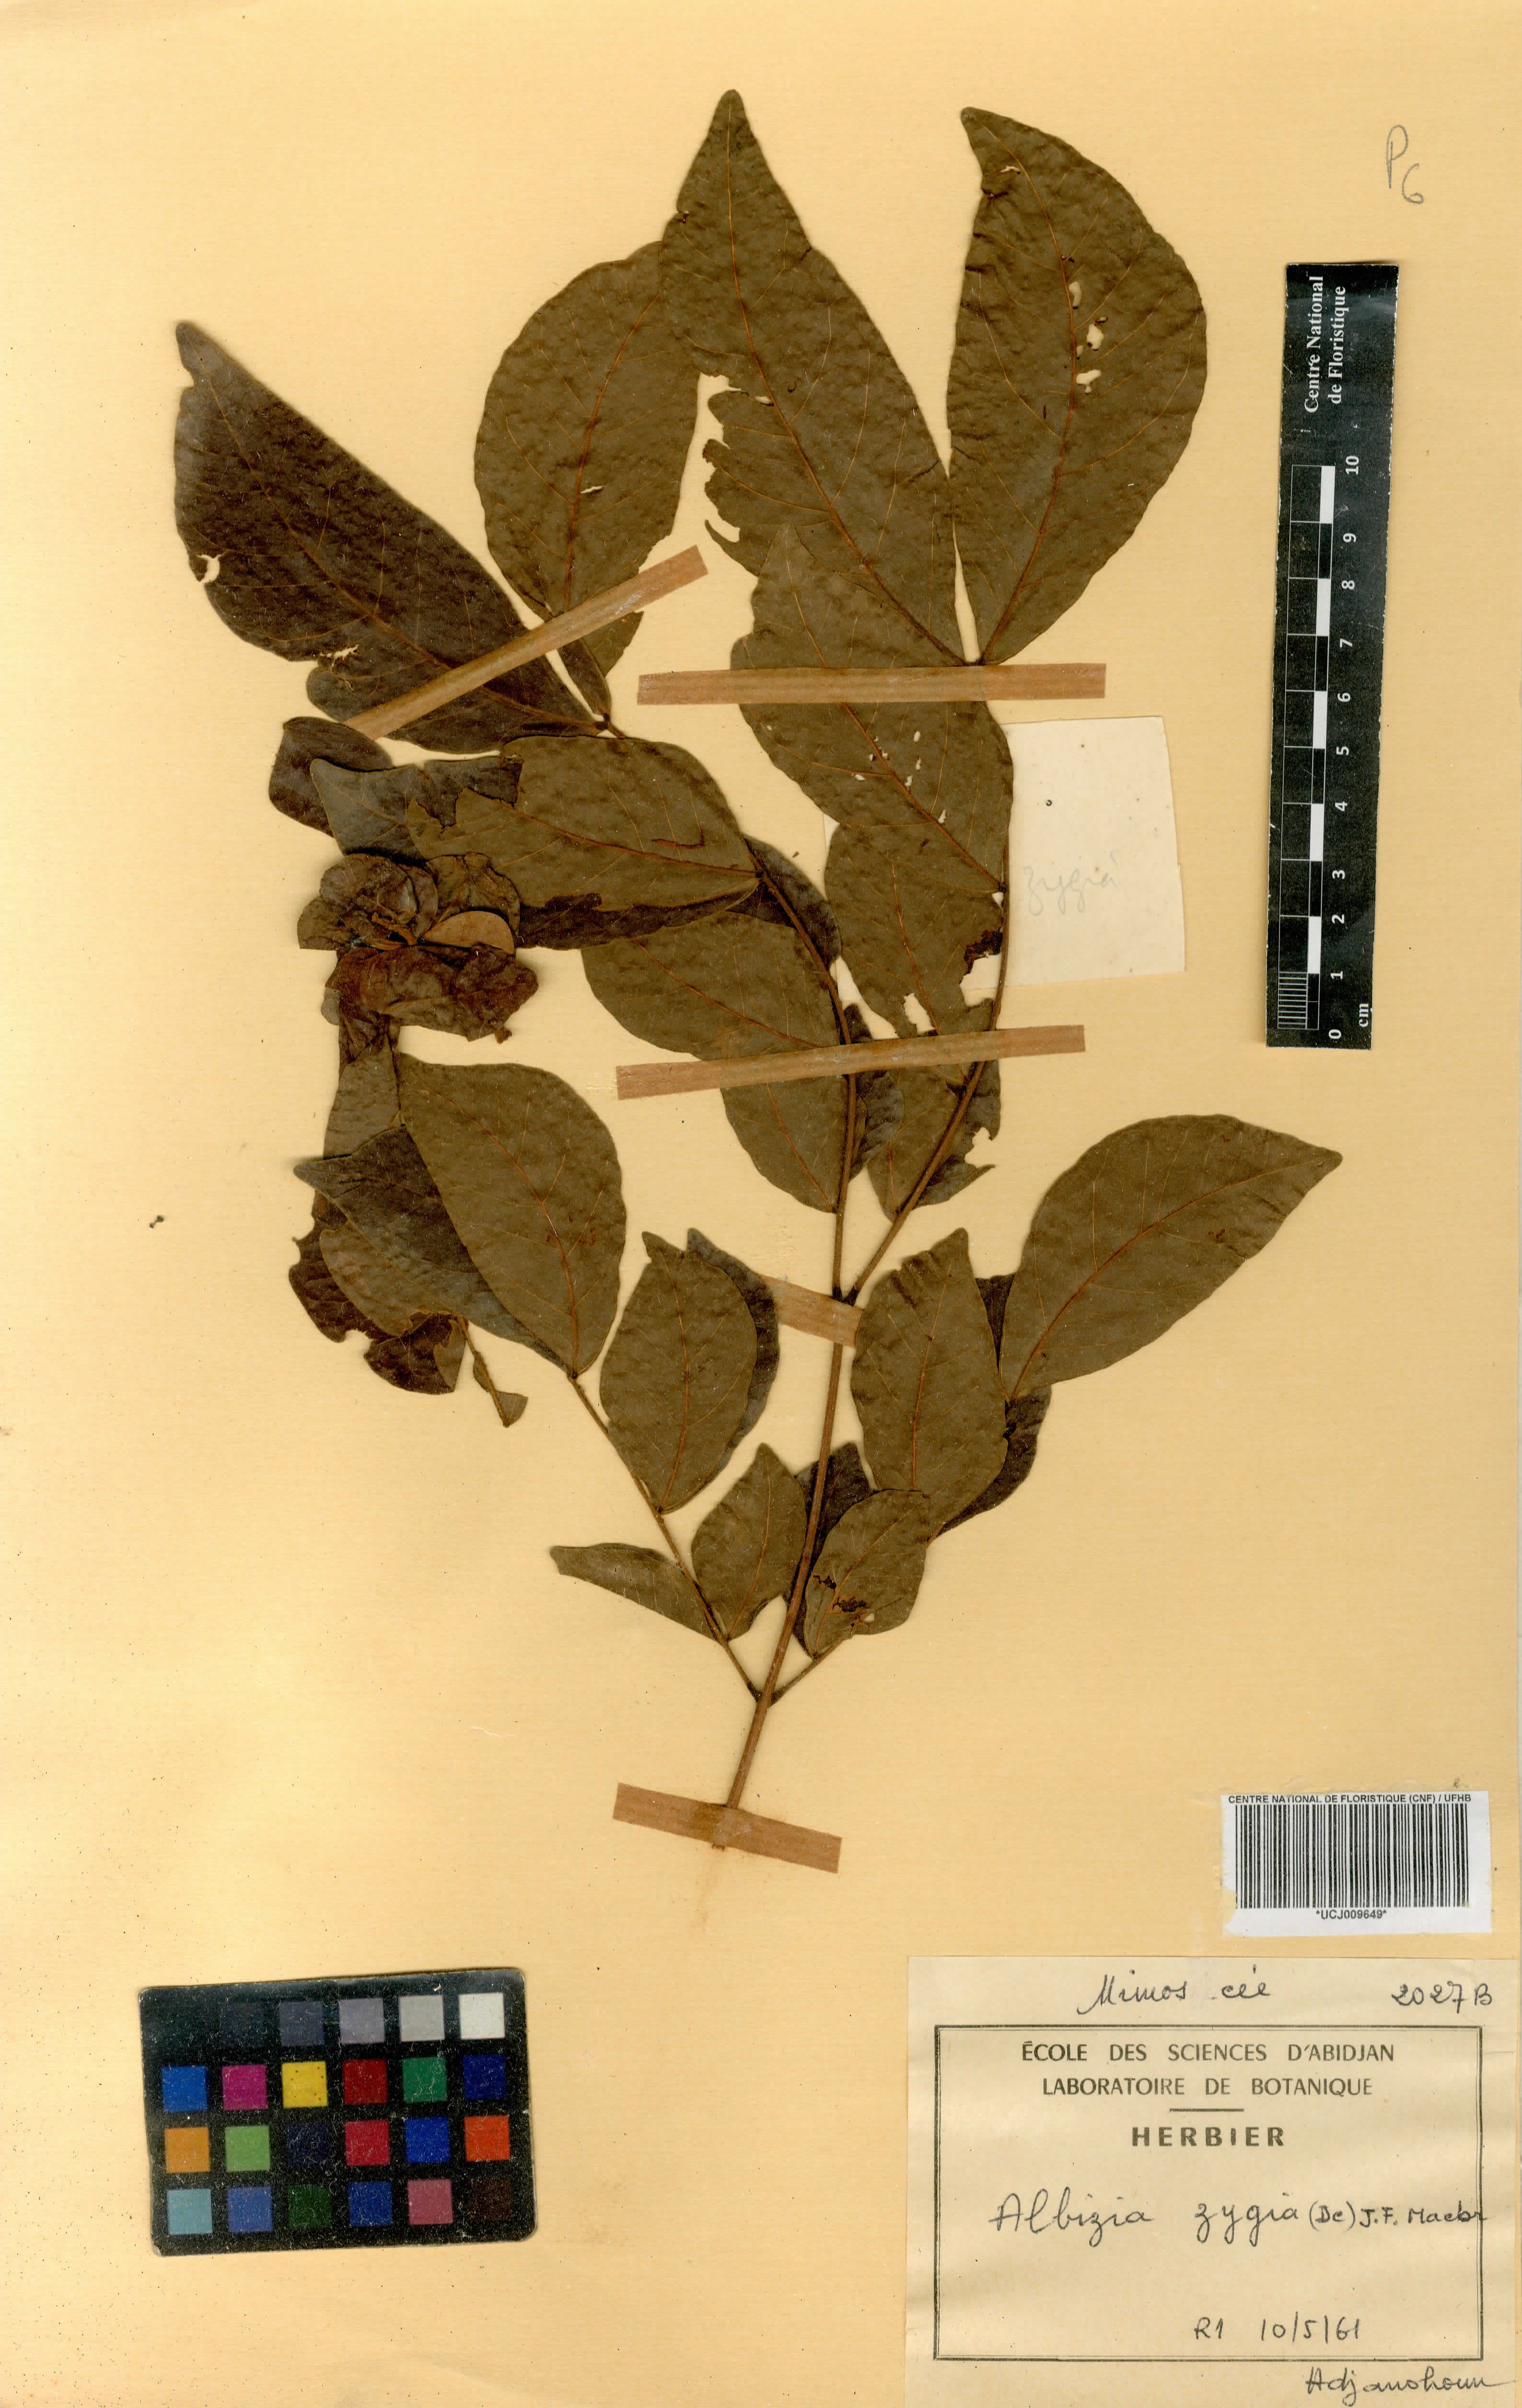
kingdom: Plantae
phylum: Tracheophyta
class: Magnoliopsida
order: Fabales
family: Fabaceae
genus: Albizia
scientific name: Albizia zygia
